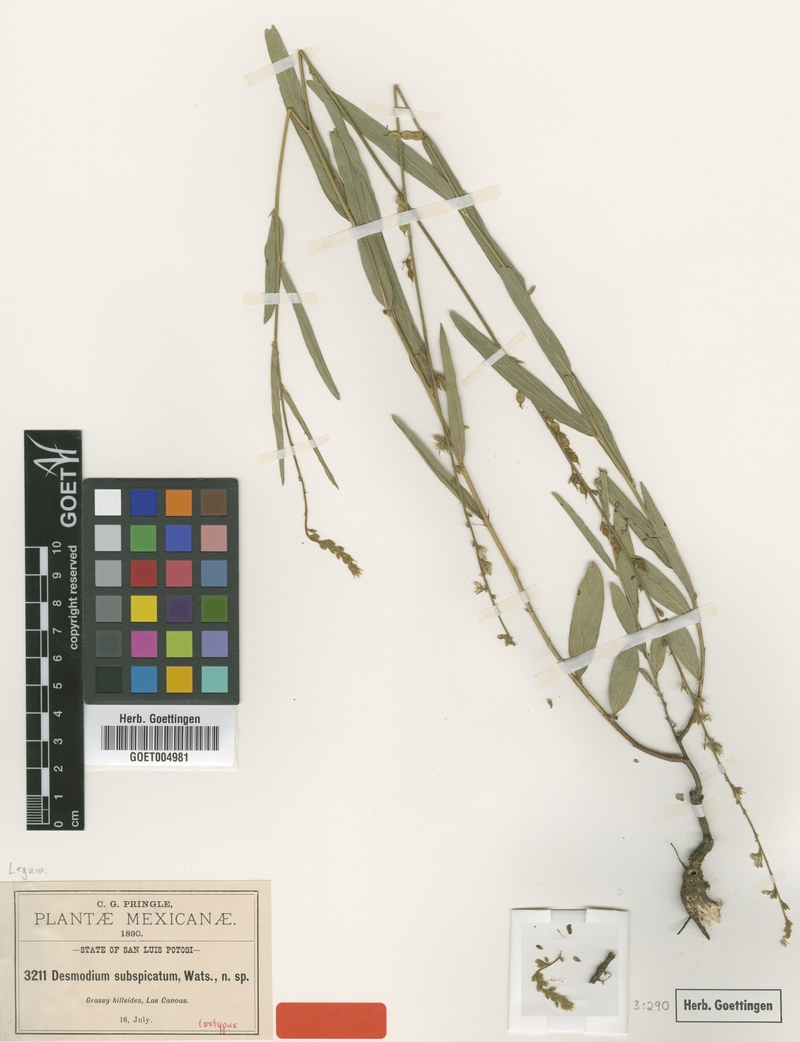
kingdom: Plantae
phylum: Tracheophyta
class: Magnoliopsida
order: Fabales
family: Fabaceae
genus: Desmodium
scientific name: Desmodium angustifolium
